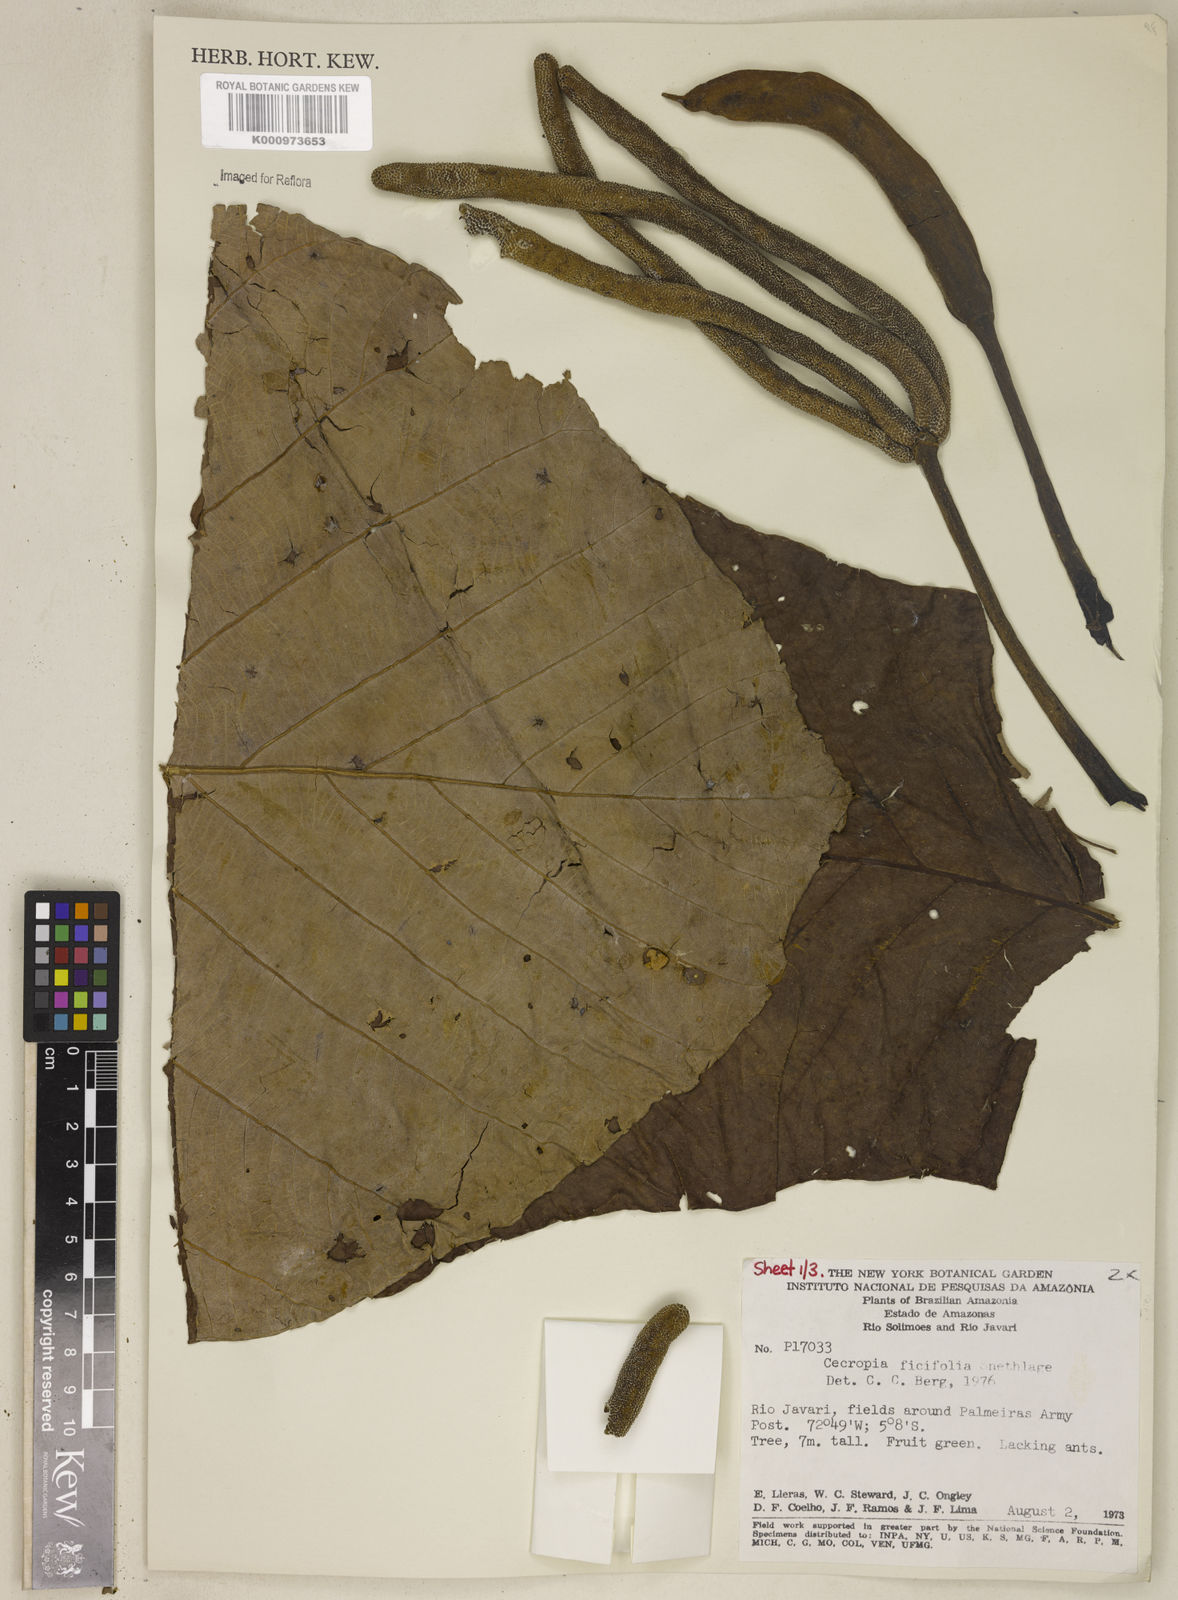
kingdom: Plantae
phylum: Tracheophyta
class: Magnoliopsida
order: Rosales
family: Urticaceae
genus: Cecropia
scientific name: Cecropia ficifolia
